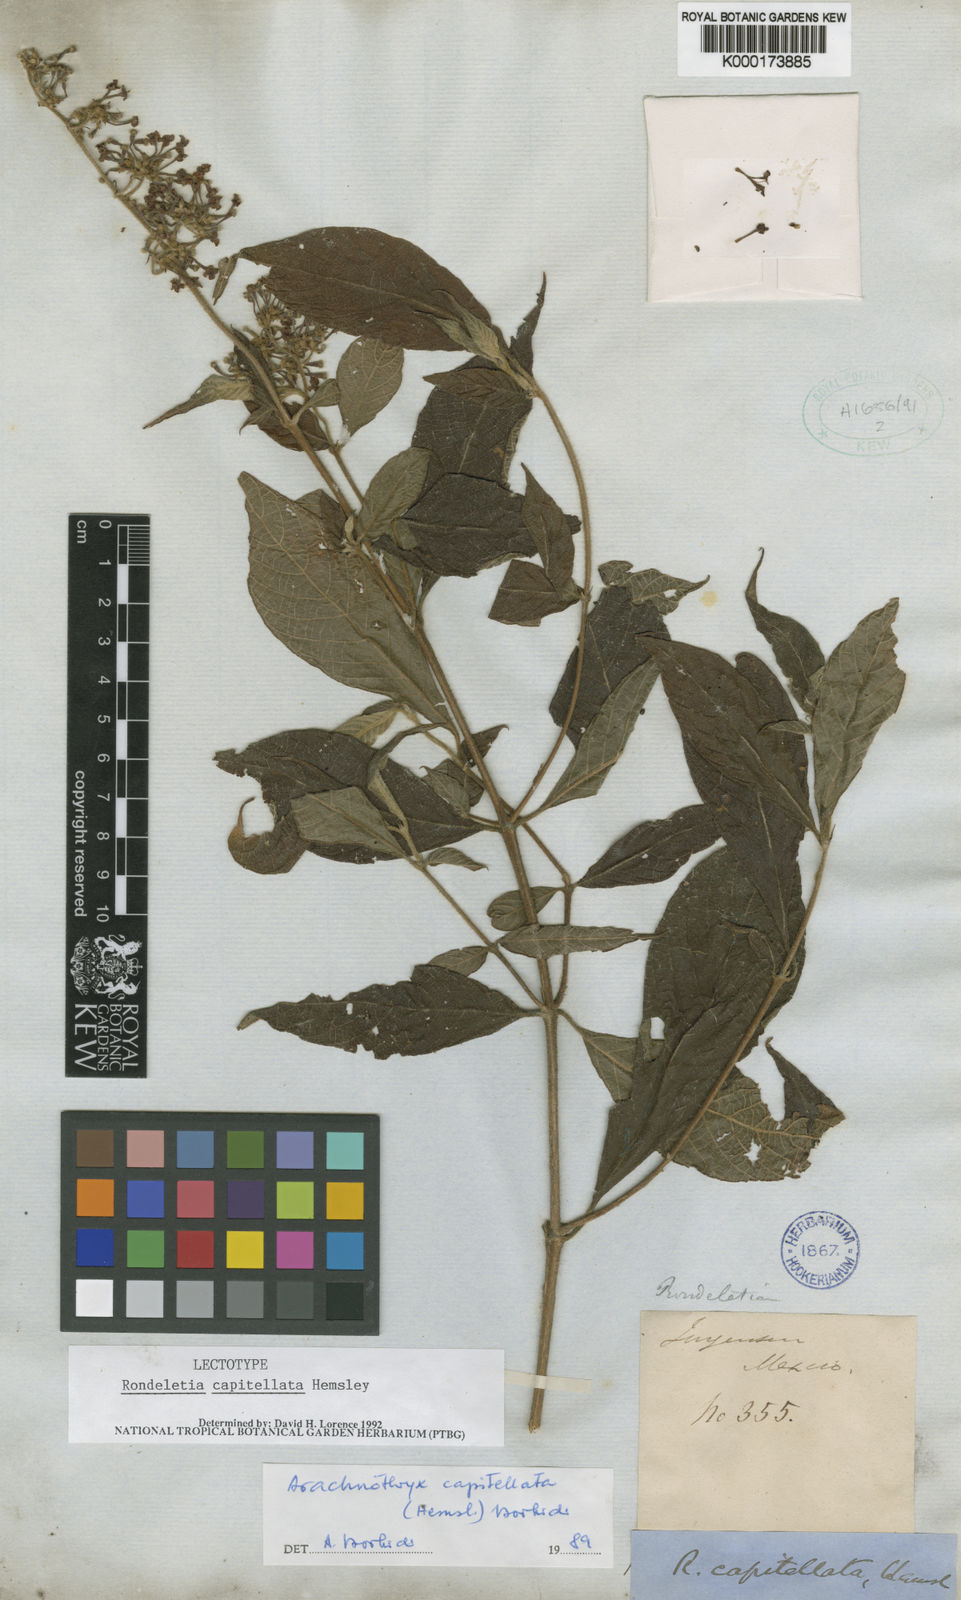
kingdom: Plantae
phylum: Tracheophyta
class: Magnoliopsida
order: Gentianales
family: Rubiaceae
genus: Arachnothryx
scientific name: Arachnothryx capitellata
